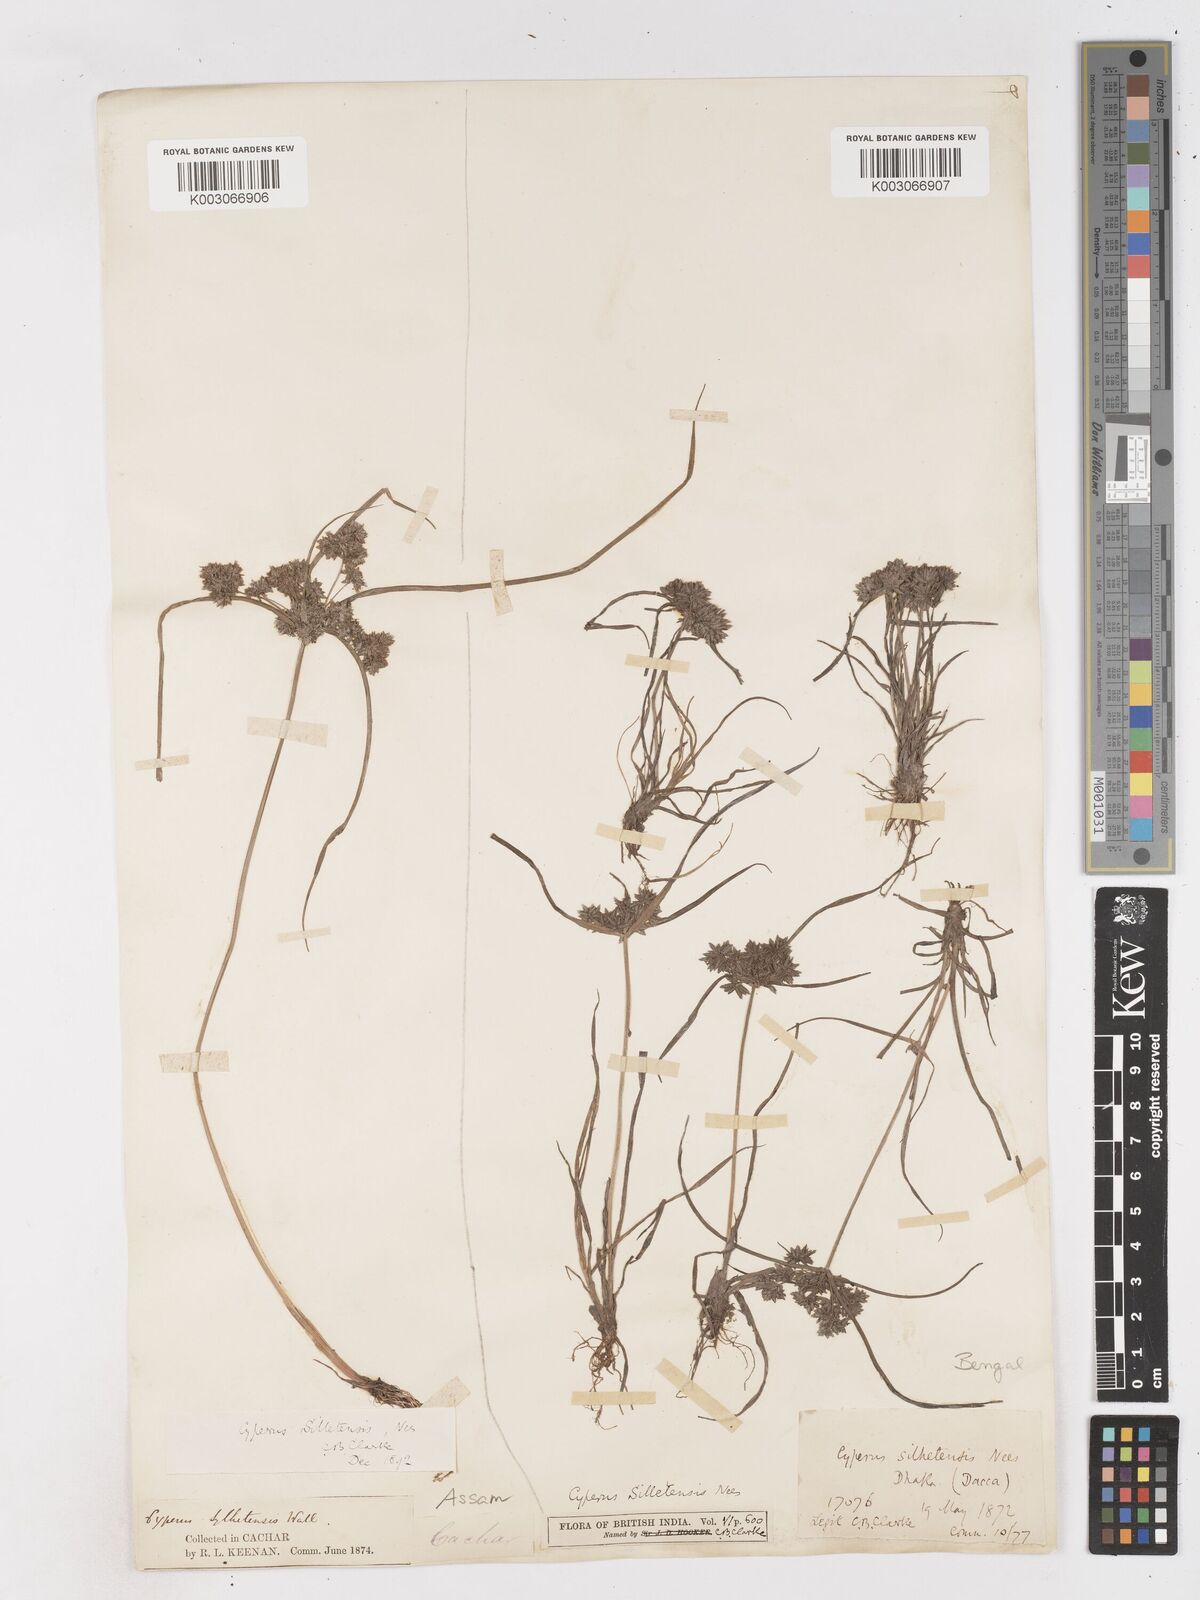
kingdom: Plantae
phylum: Tracheophyta
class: Liliopsida
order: Poales
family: Cyperaceae
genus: Cyperus
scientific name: Cyperus silletensis
